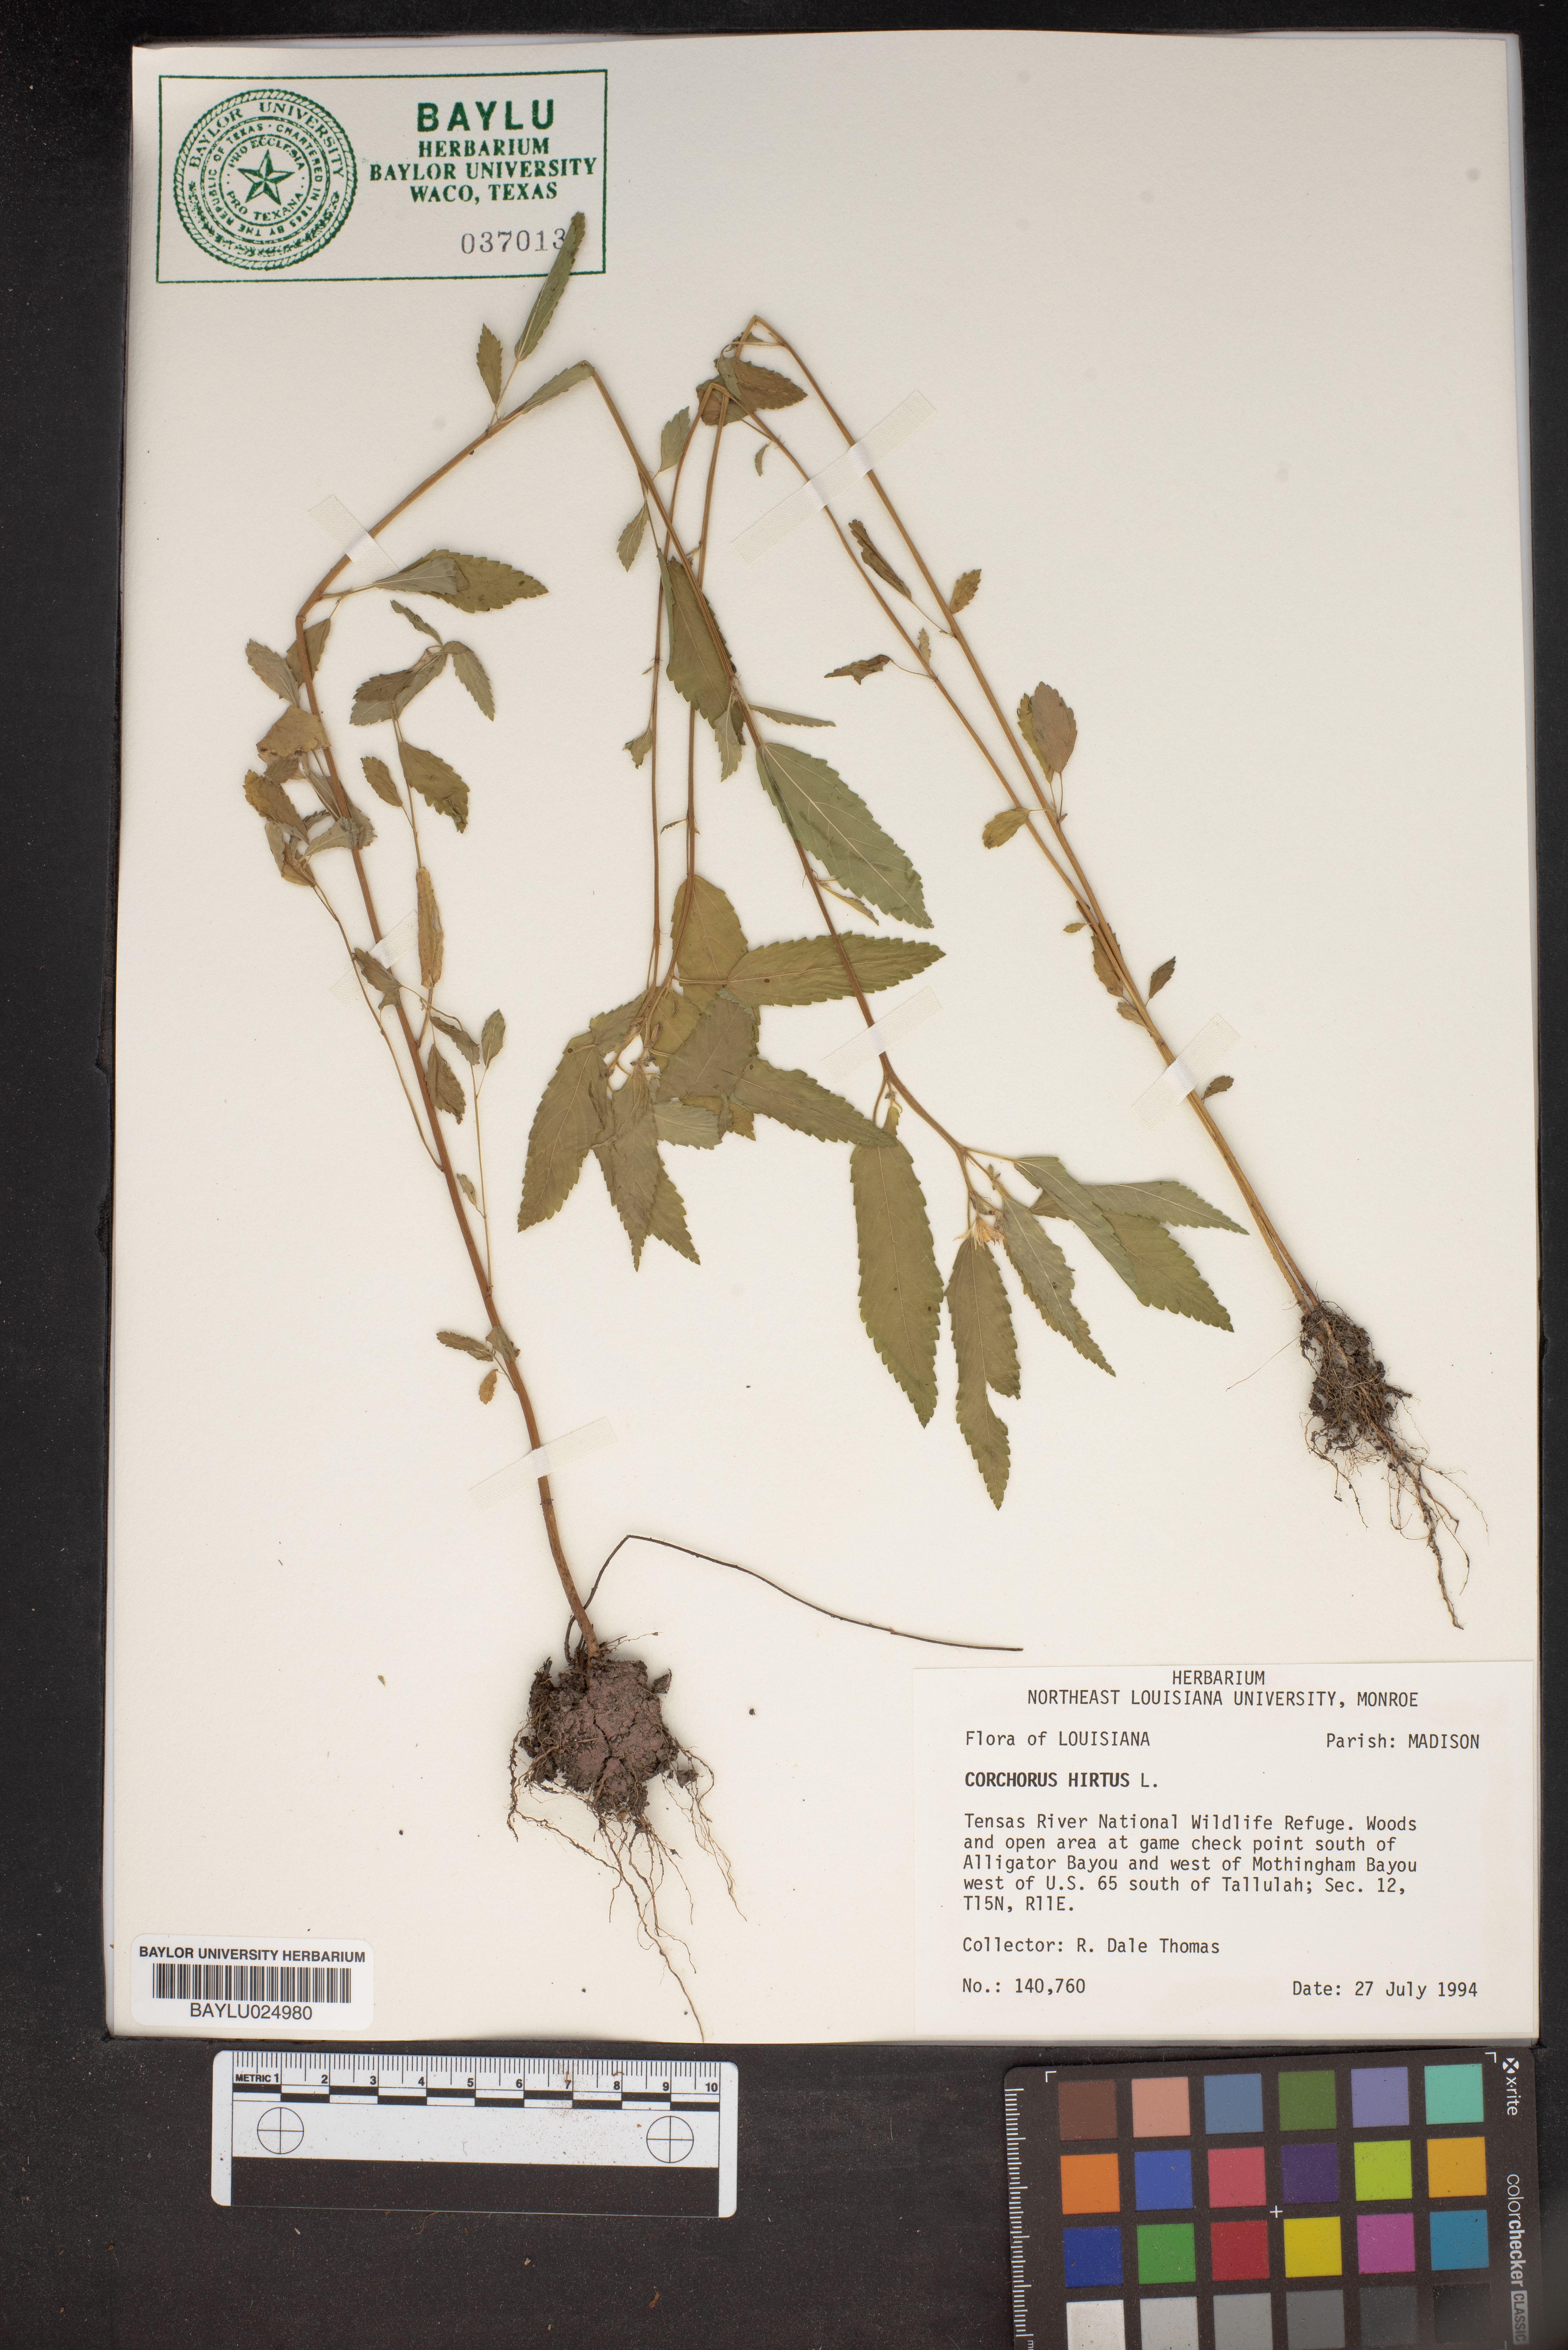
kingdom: Plantae
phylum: Tracheophyta
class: Magnoliopsida
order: Malvales
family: Malvaceae
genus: Corchorus
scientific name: Corchorus hirtus
